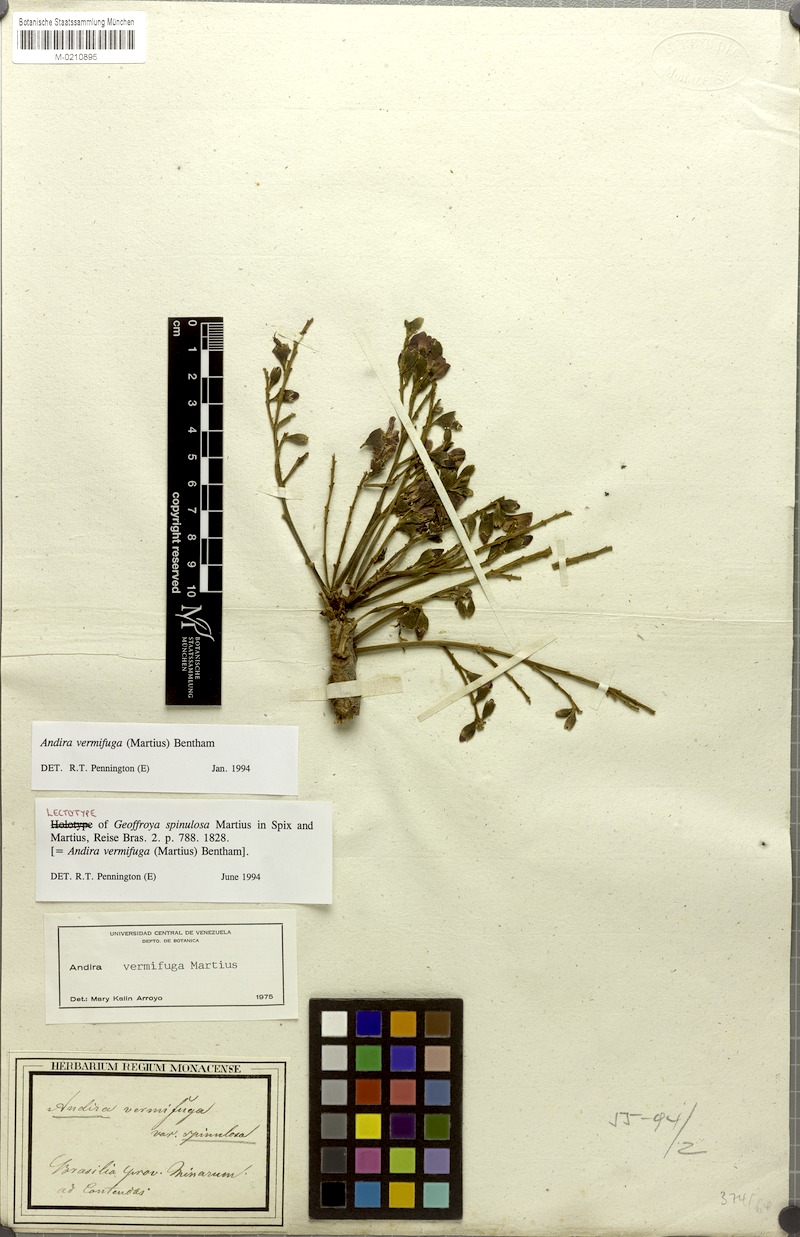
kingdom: Plantae
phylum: Tracheophyta
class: Magnoliopsida
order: Fabales
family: Fabaceae
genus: Andira
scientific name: Andira vermifuga
